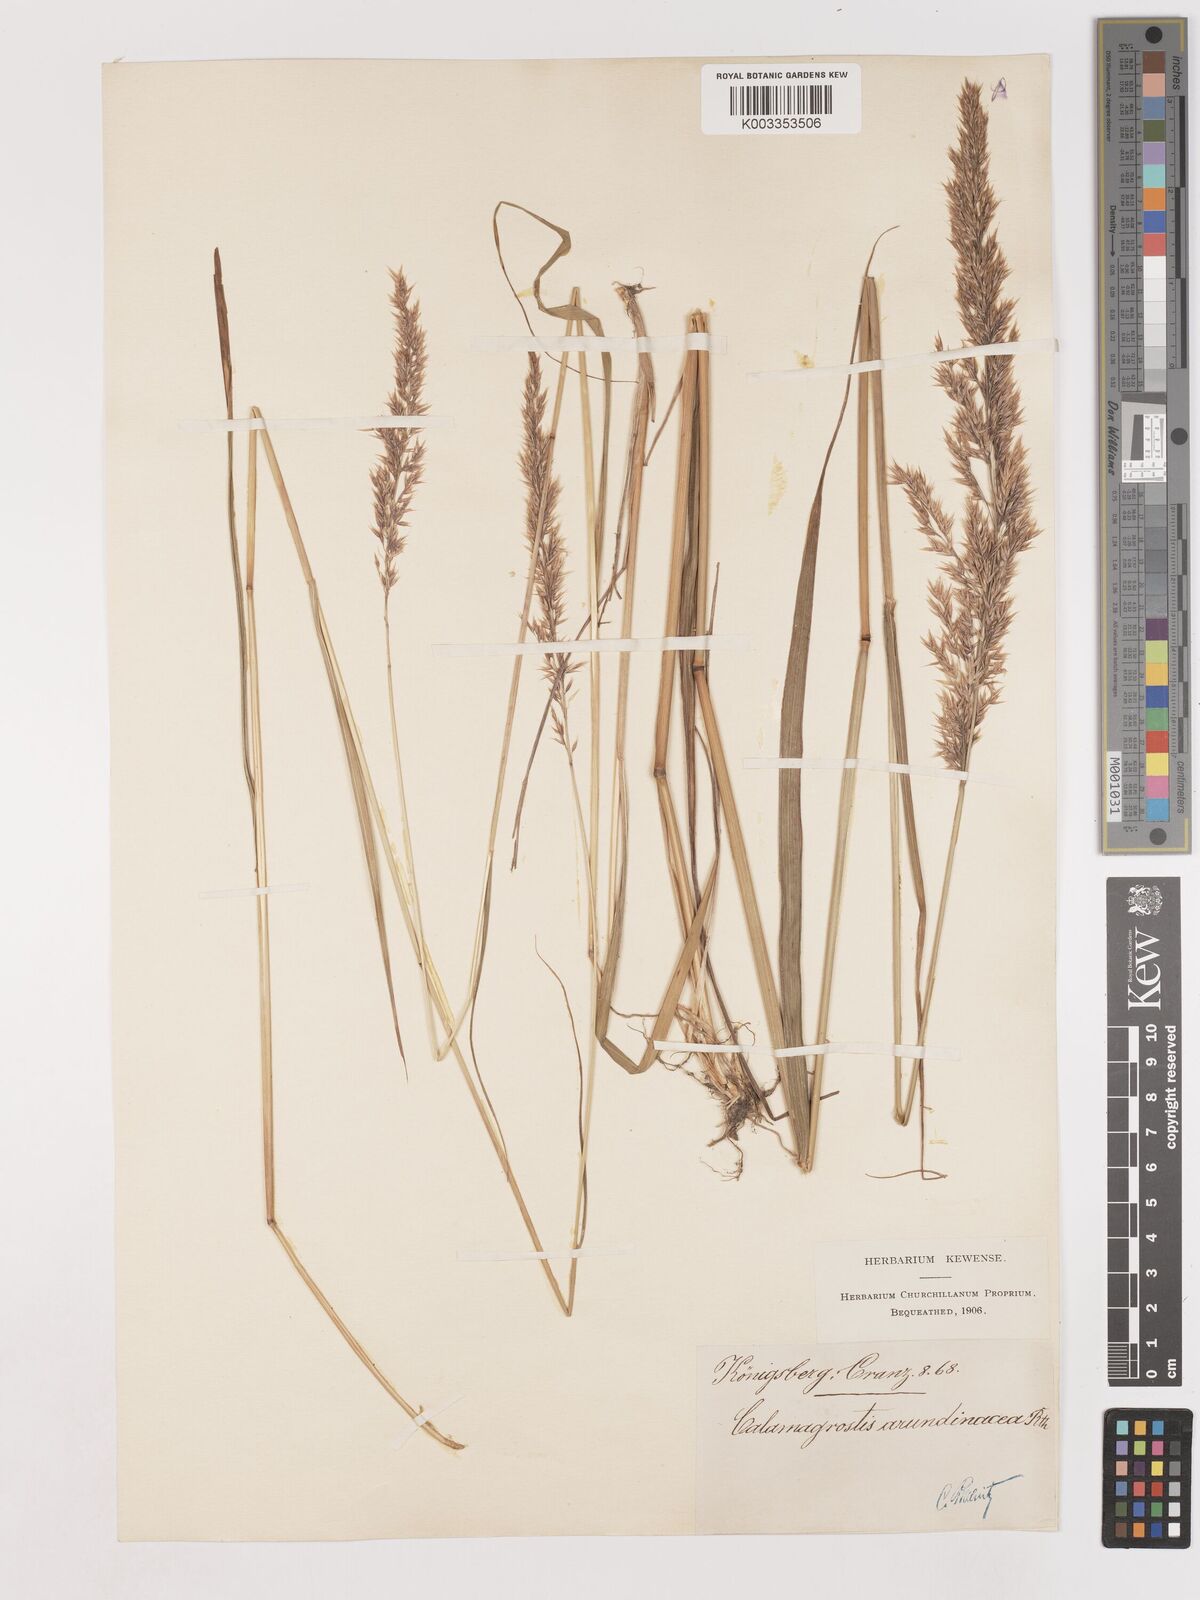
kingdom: Plantae
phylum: Tracheophyta
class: Liliopsida
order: Poales
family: Poaceae
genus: Calamagrostis
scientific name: Calamagrostis
